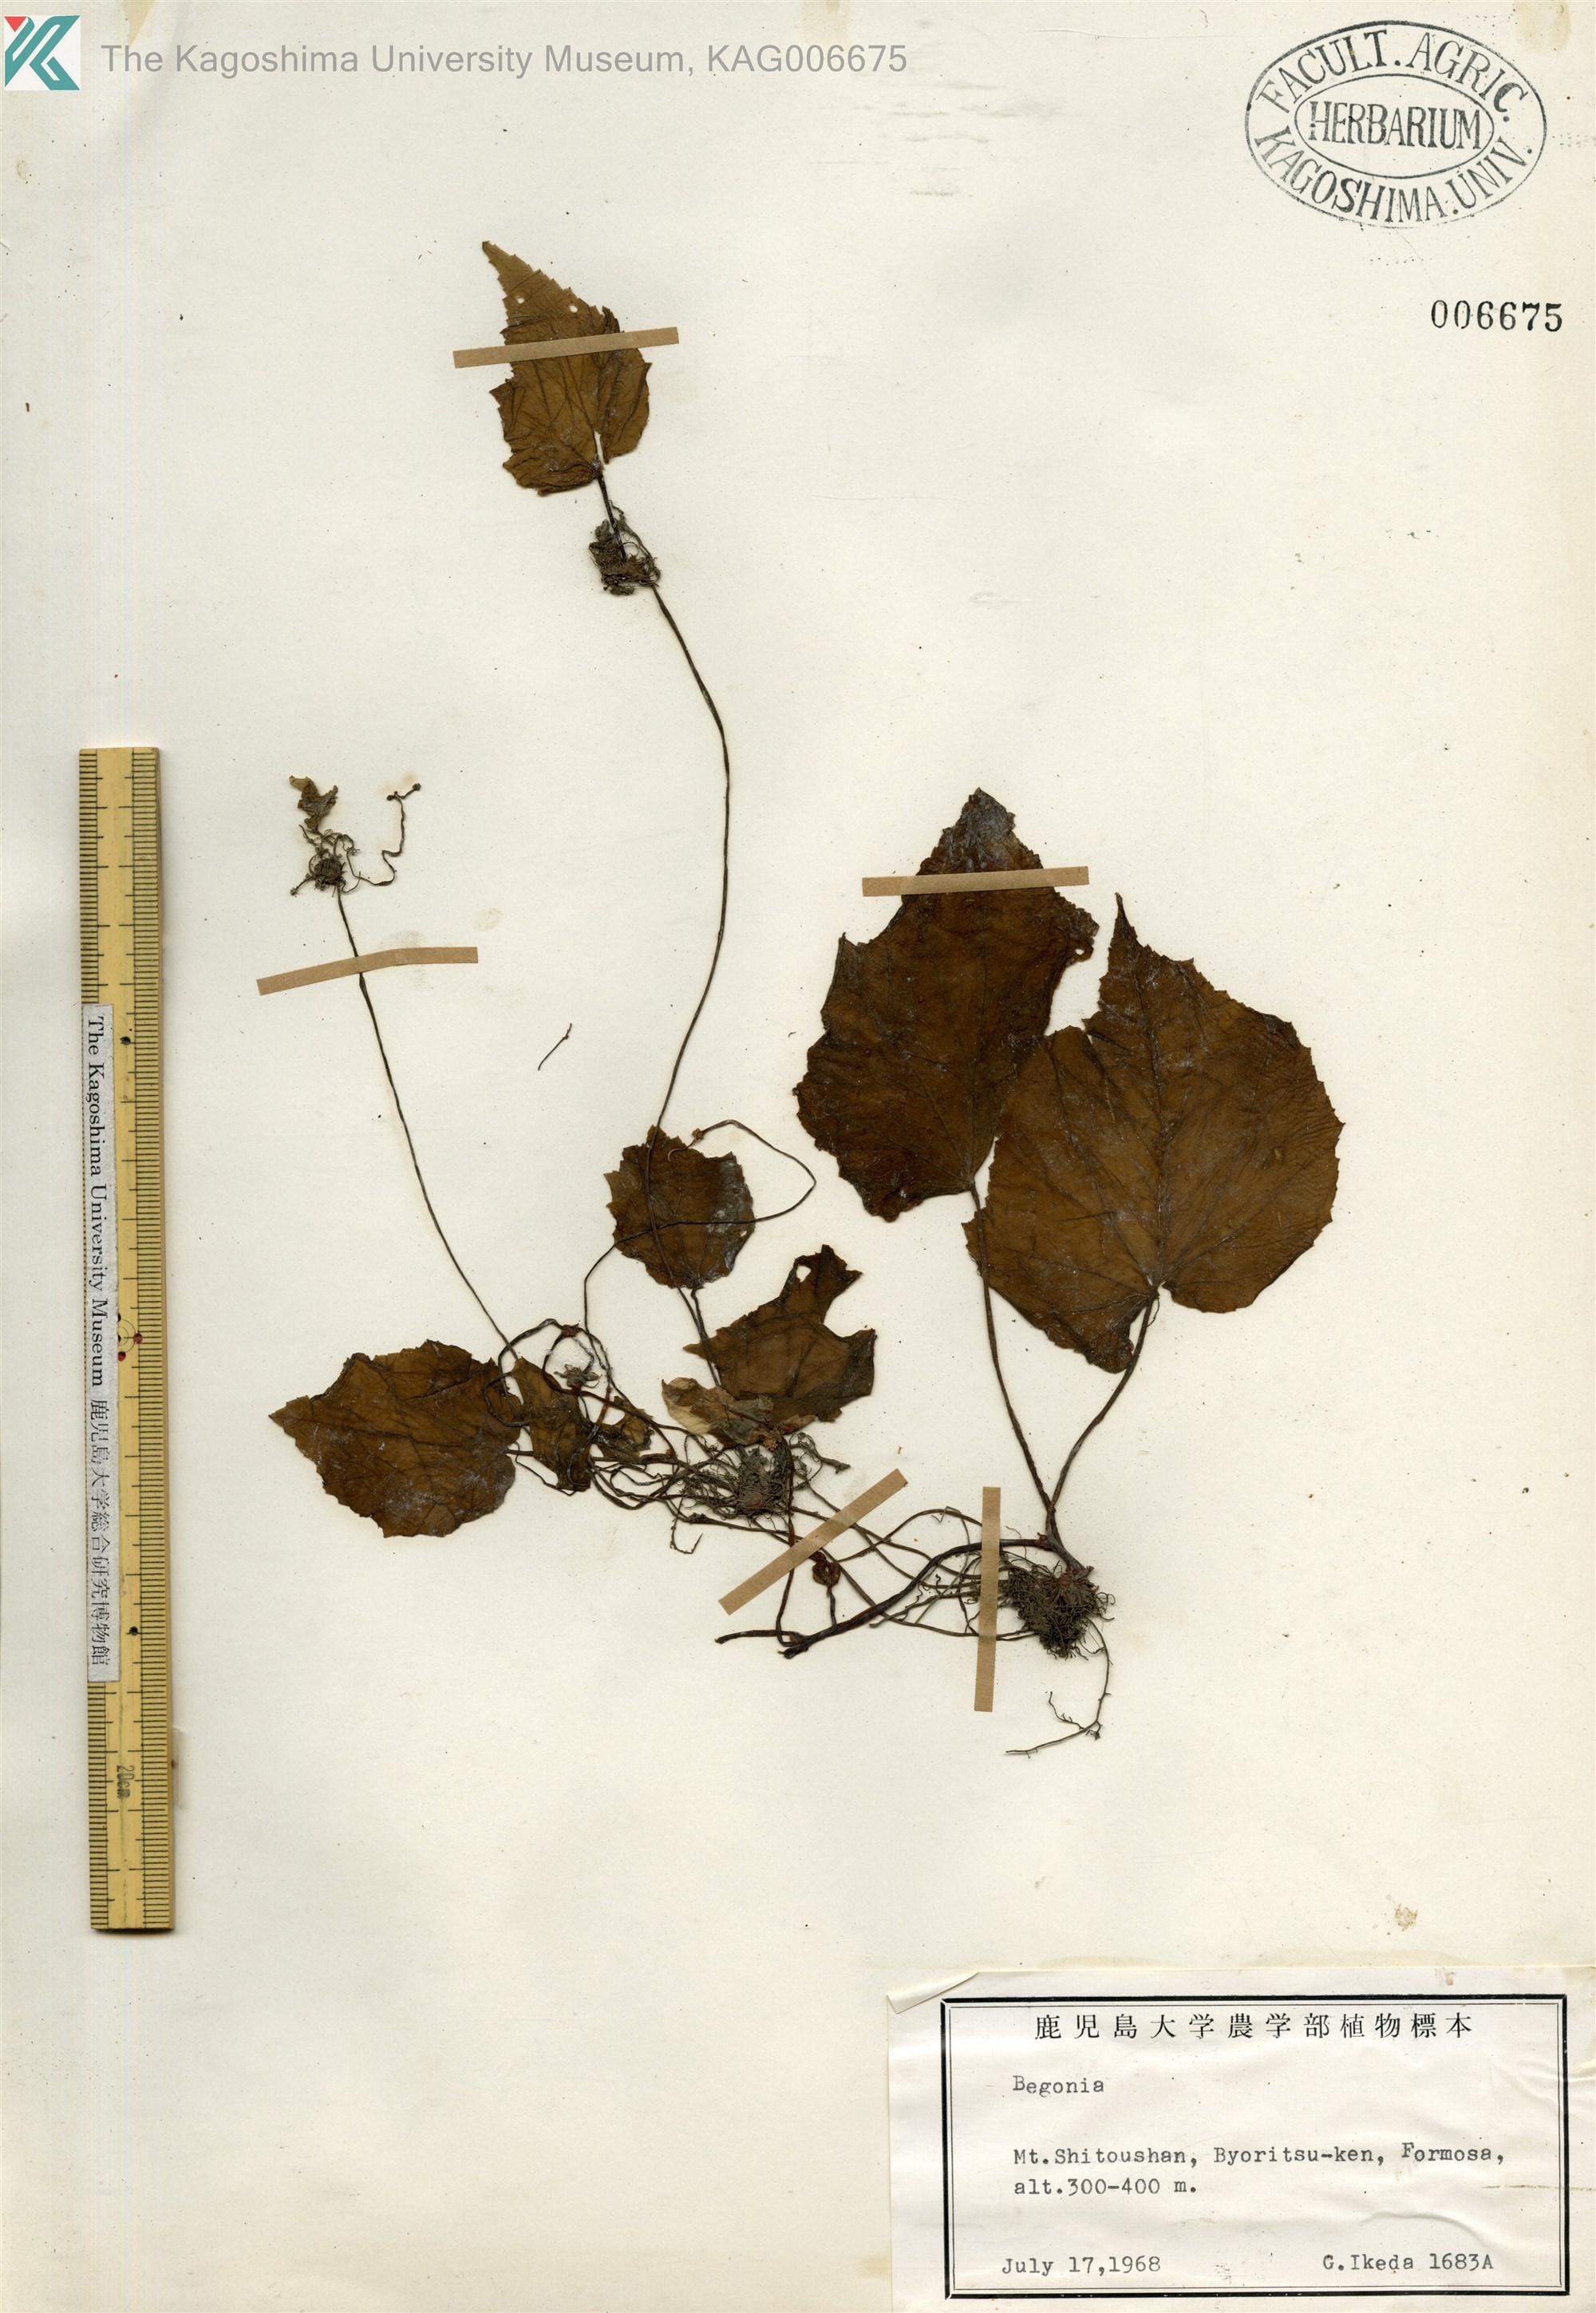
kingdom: Plantae
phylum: Tracheophyta
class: Magnoliopsida
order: Cucurbitales
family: Begoniaceae
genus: Begonia
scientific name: Begonia palmata
